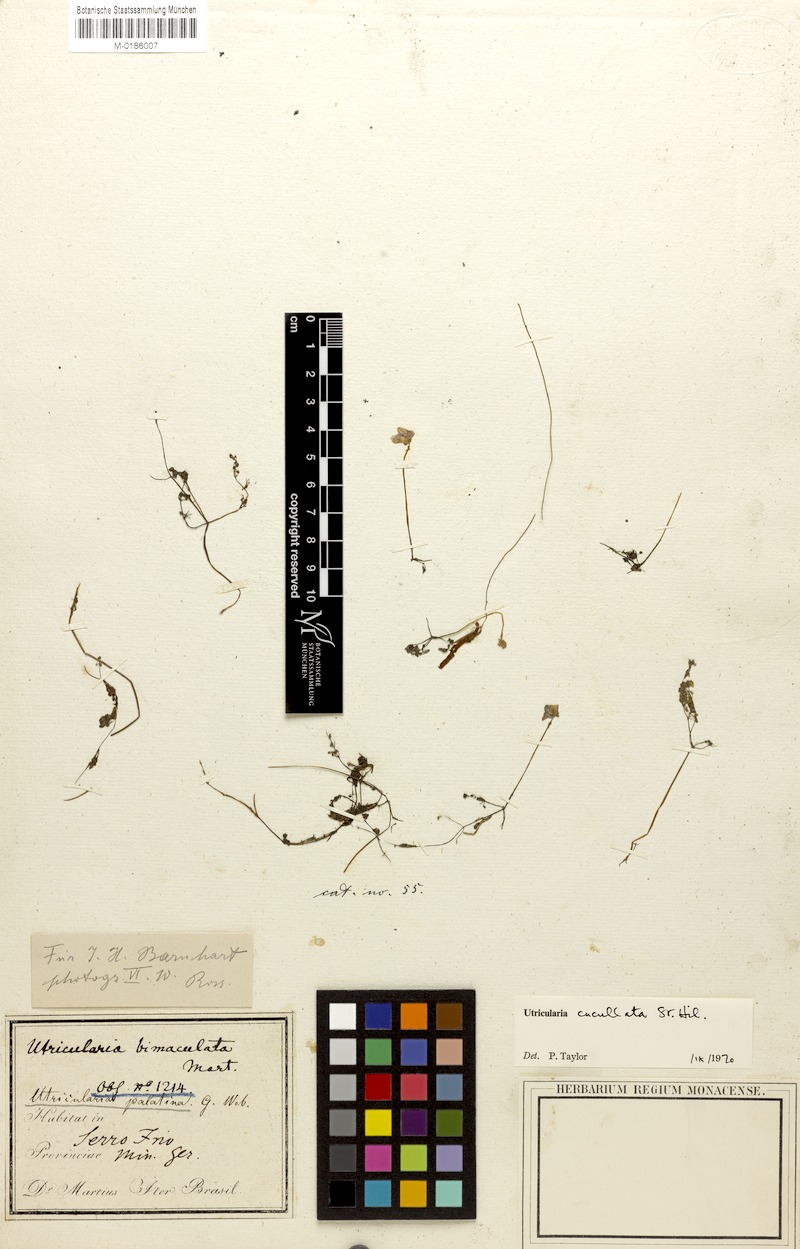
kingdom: Plantae
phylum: Tracheophyta
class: Magnoliopsida
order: Lamiales
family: Lentibulariaceae
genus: Utricularia
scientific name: Utricularia cucullata
